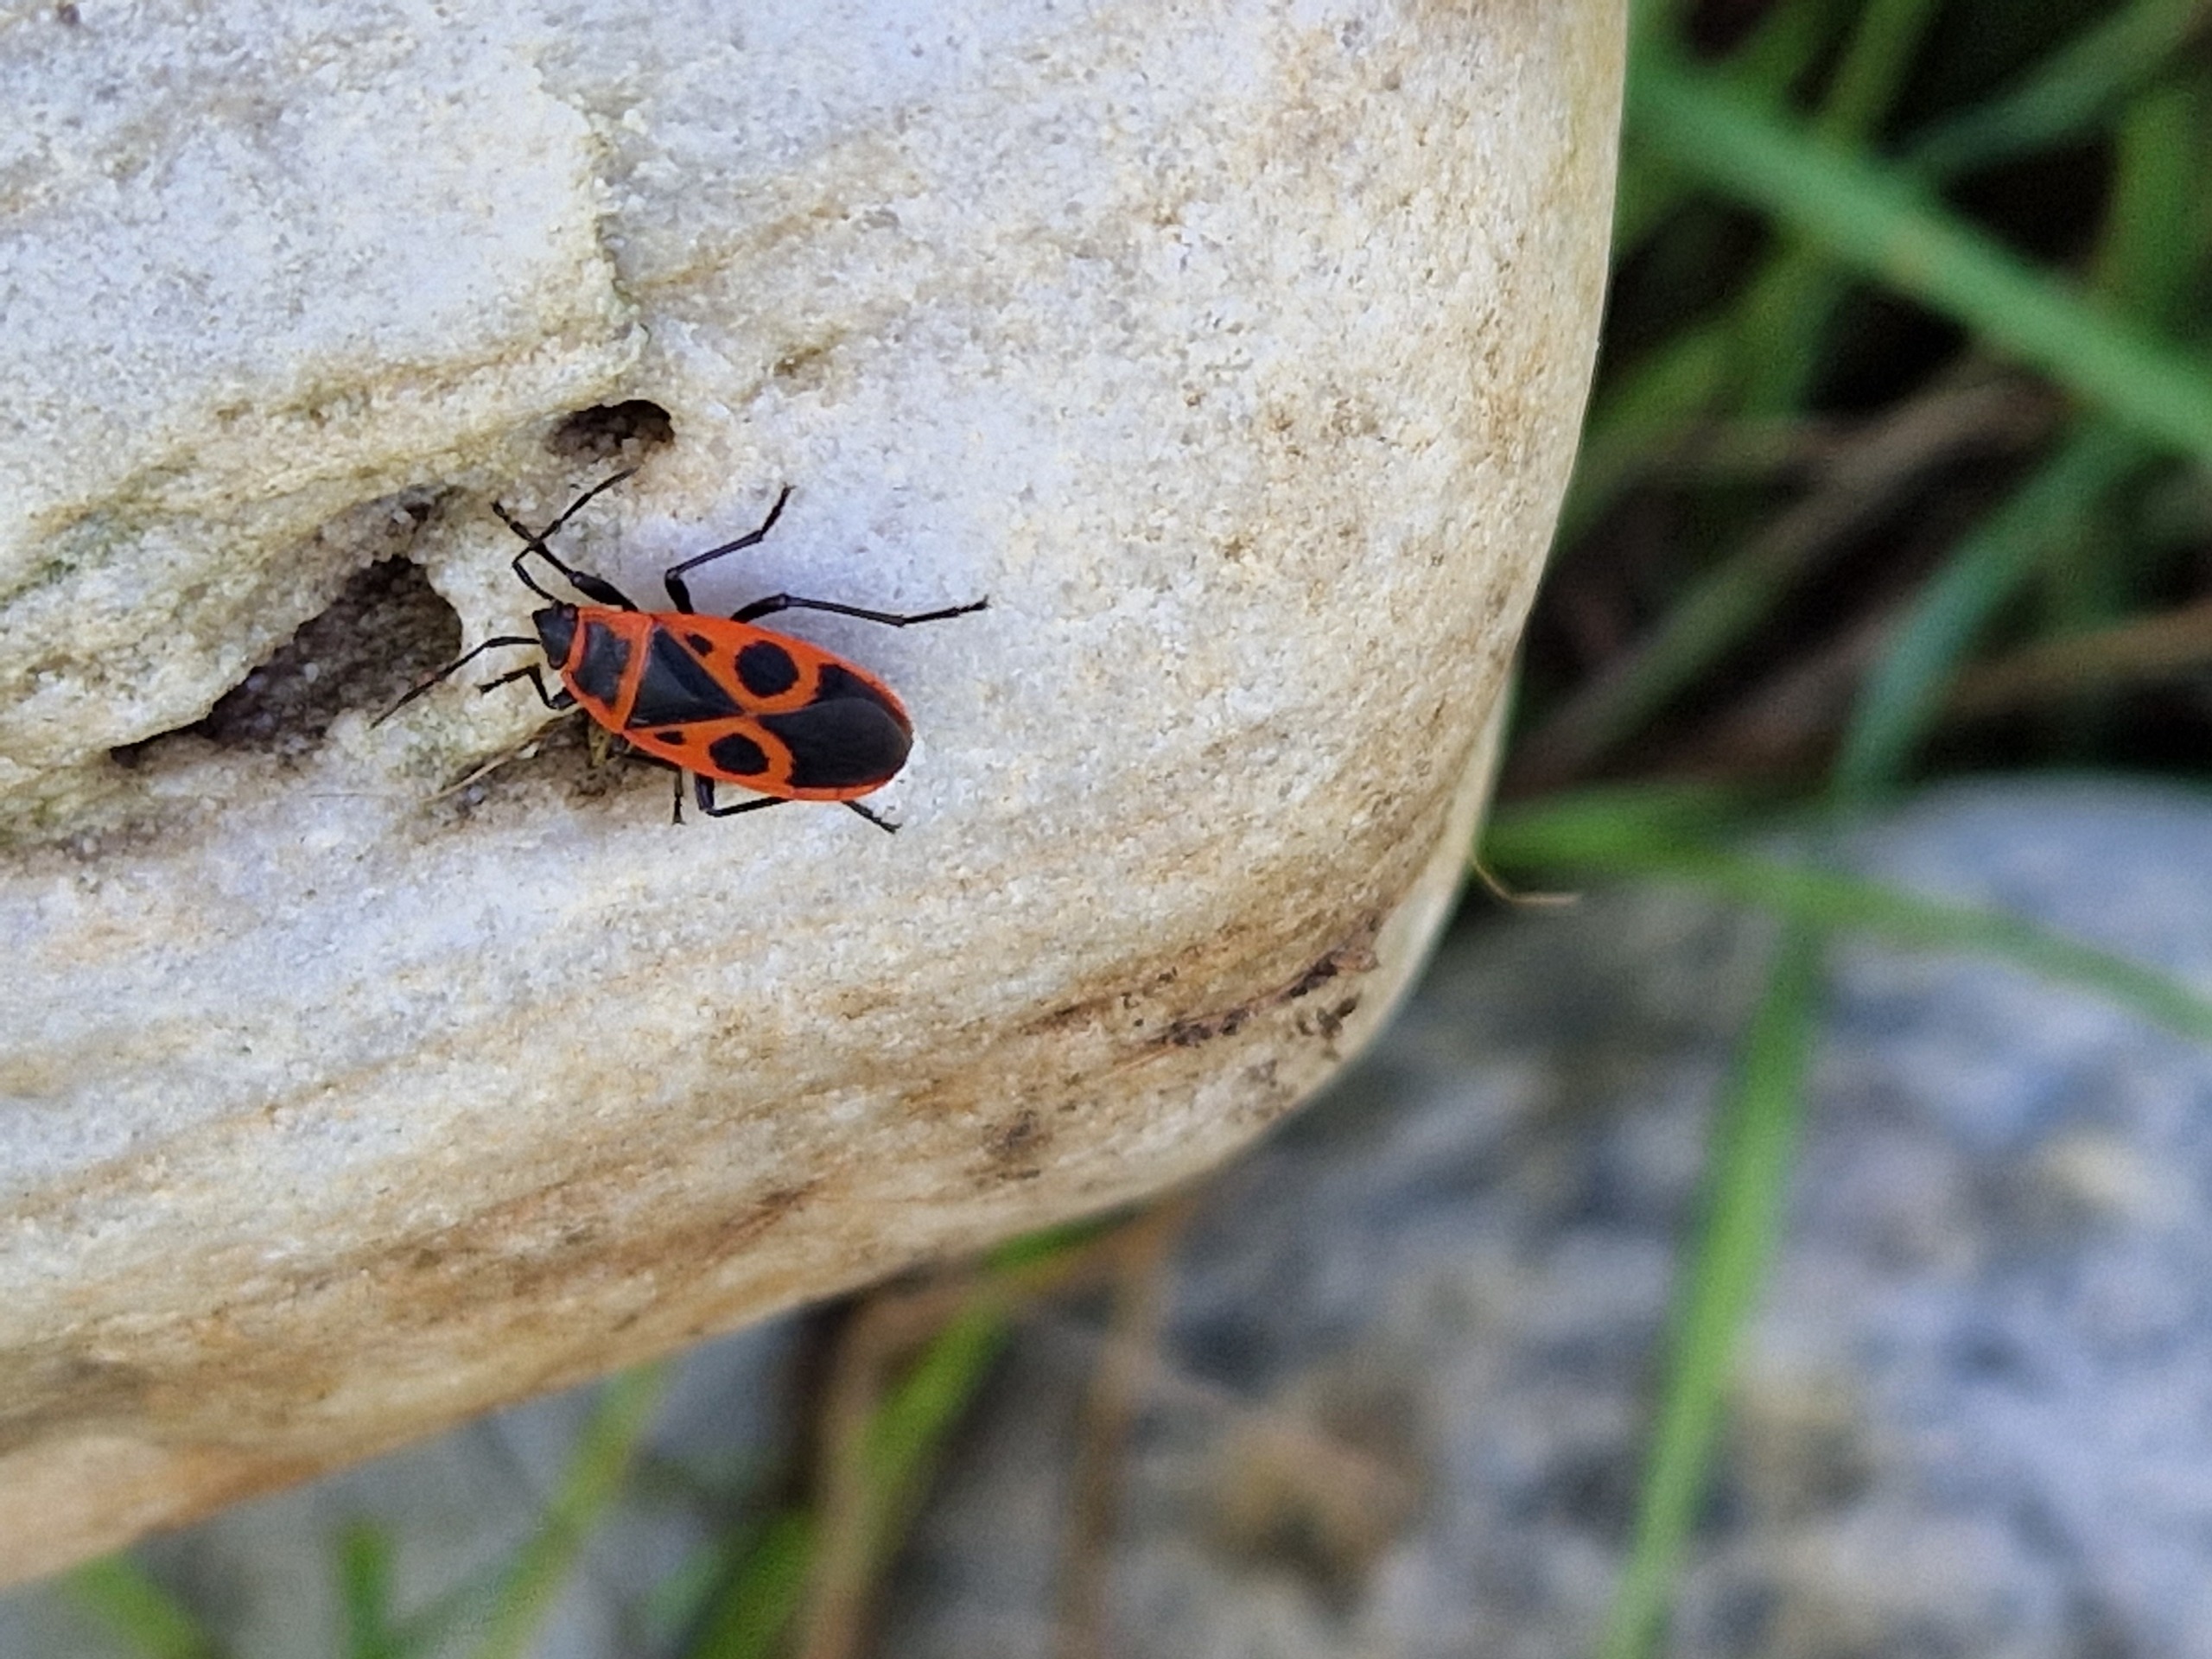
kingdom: Animalia
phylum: Arthropoda
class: Insecta
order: Hemiptera
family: Pyrrhocoridae
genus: Pyrrhocoris
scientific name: Pyrrhocoris apterus
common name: Ildtæge
